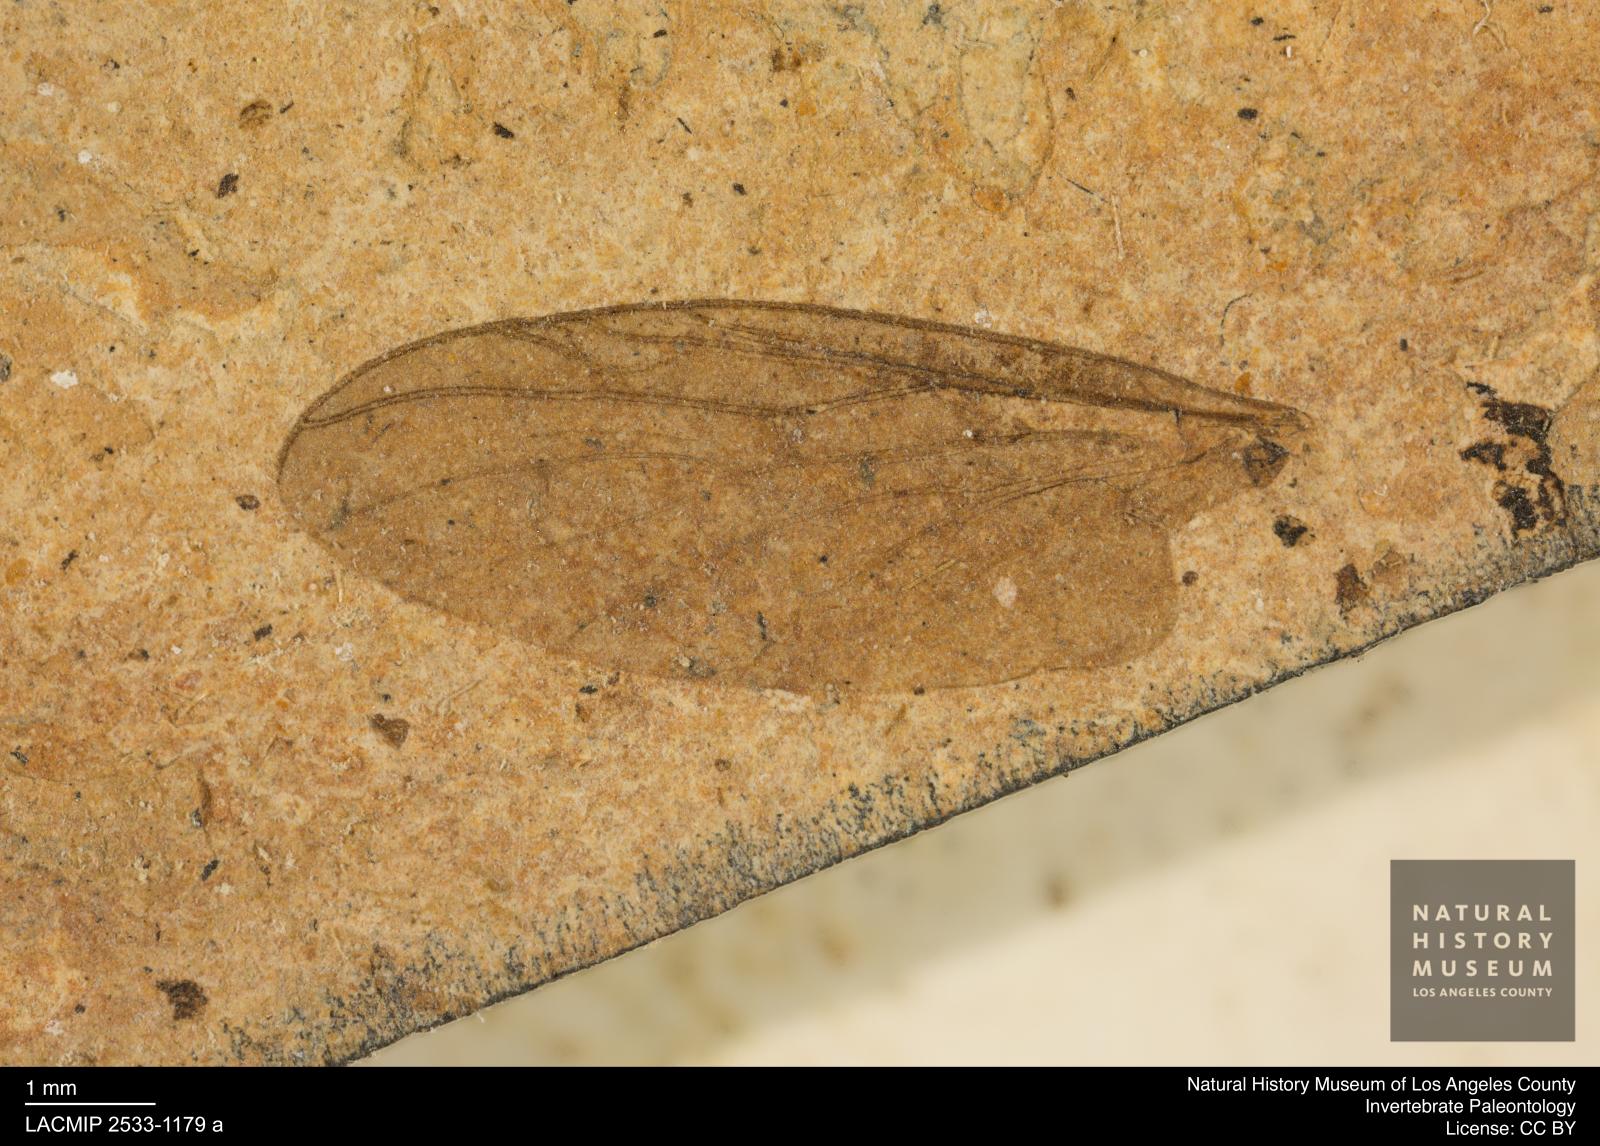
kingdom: Animalia
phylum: Arthropoda
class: Insecta
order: Diptera
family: Bibionidae
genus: Plecia
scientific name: Plecia grossa
